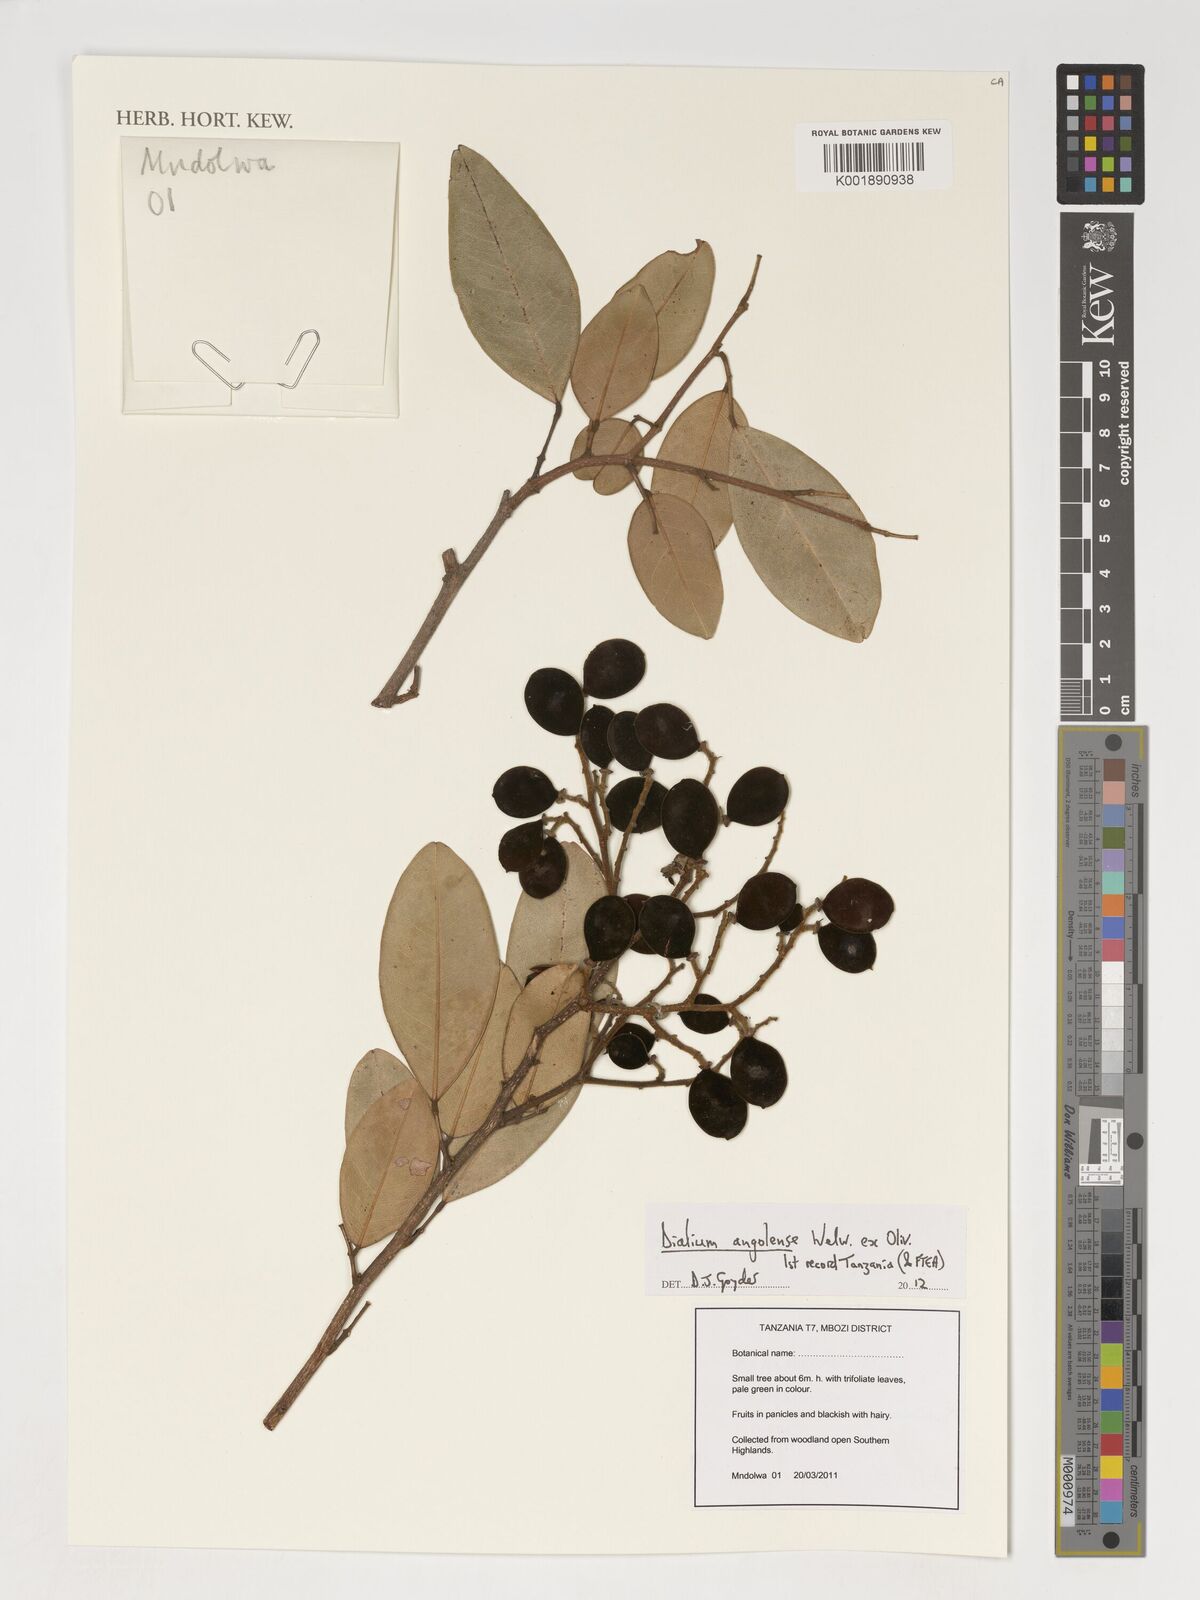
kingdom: Plantae
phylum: Tracheophyta
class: Magnoliopsida
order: Fabales
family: Fabaceae
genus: Dialium
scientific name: Dialium angolense
